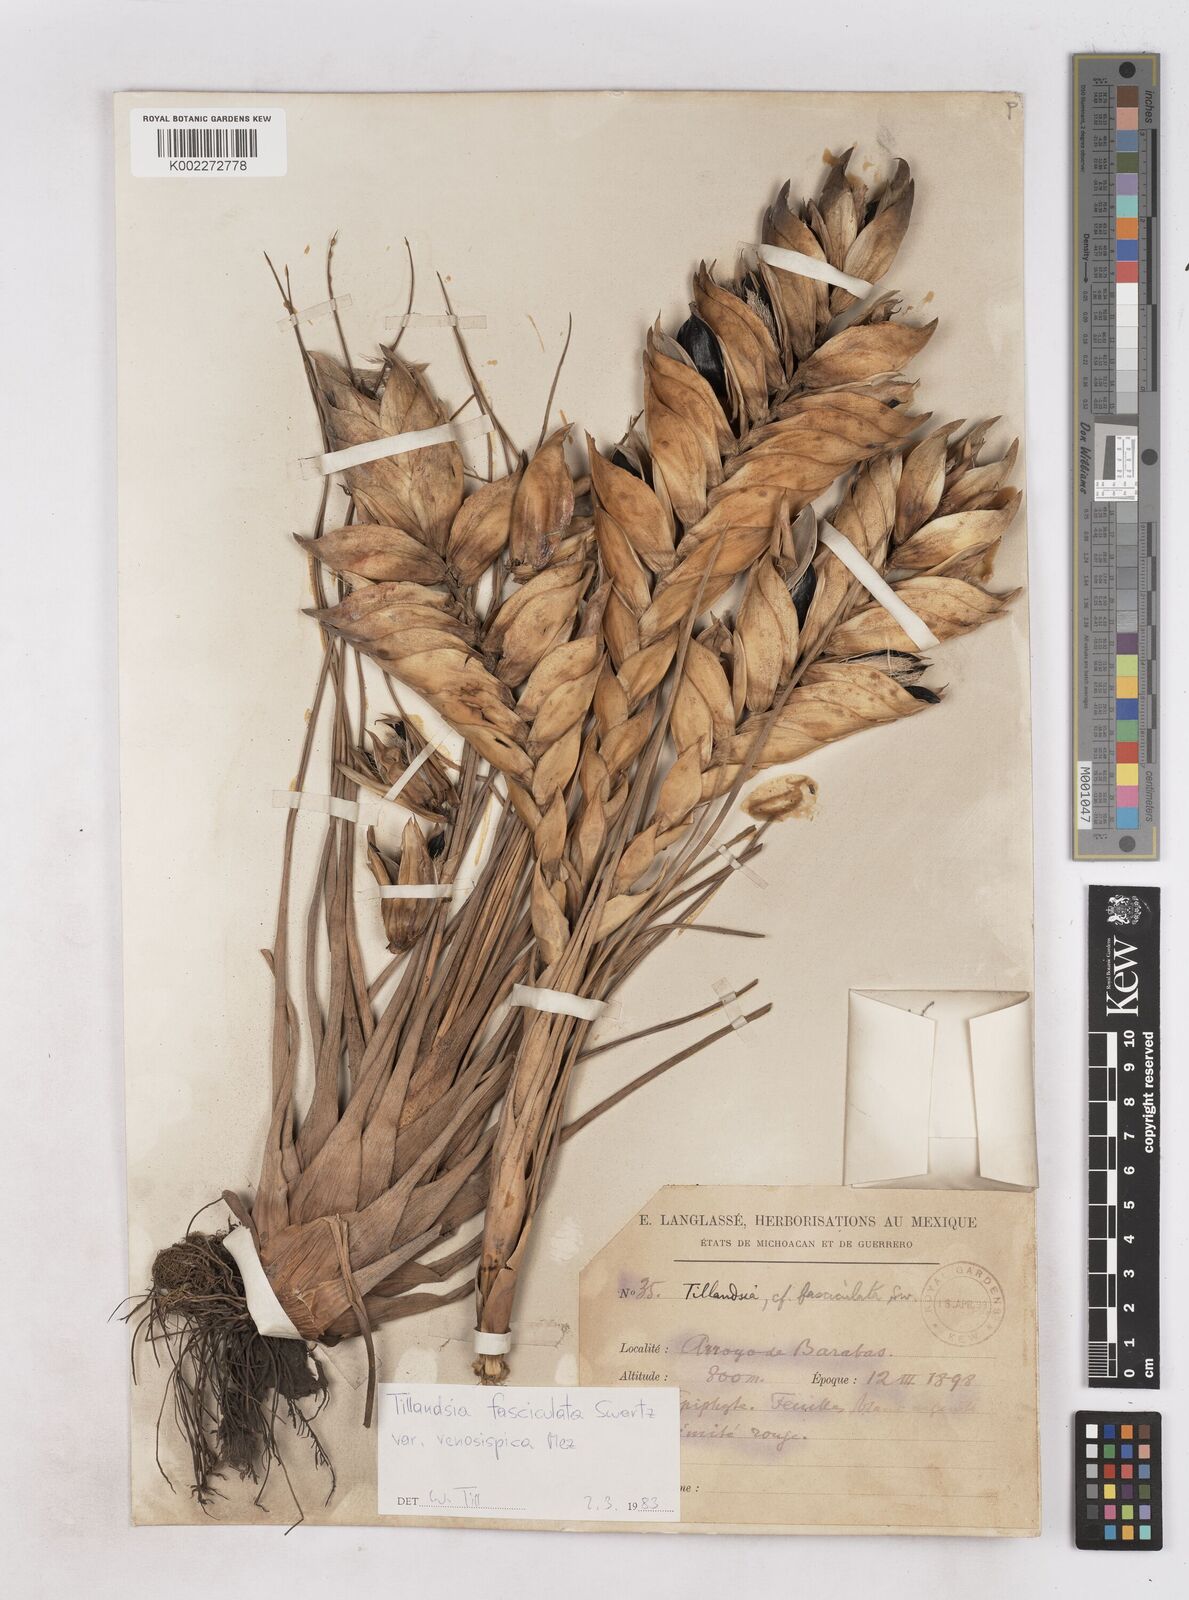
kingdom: Plantae
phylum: Tracheophyta
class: Liliopsida
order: Poales
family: Bromeliaceae
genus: Tillandsia
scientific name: Tillandsia compressa
